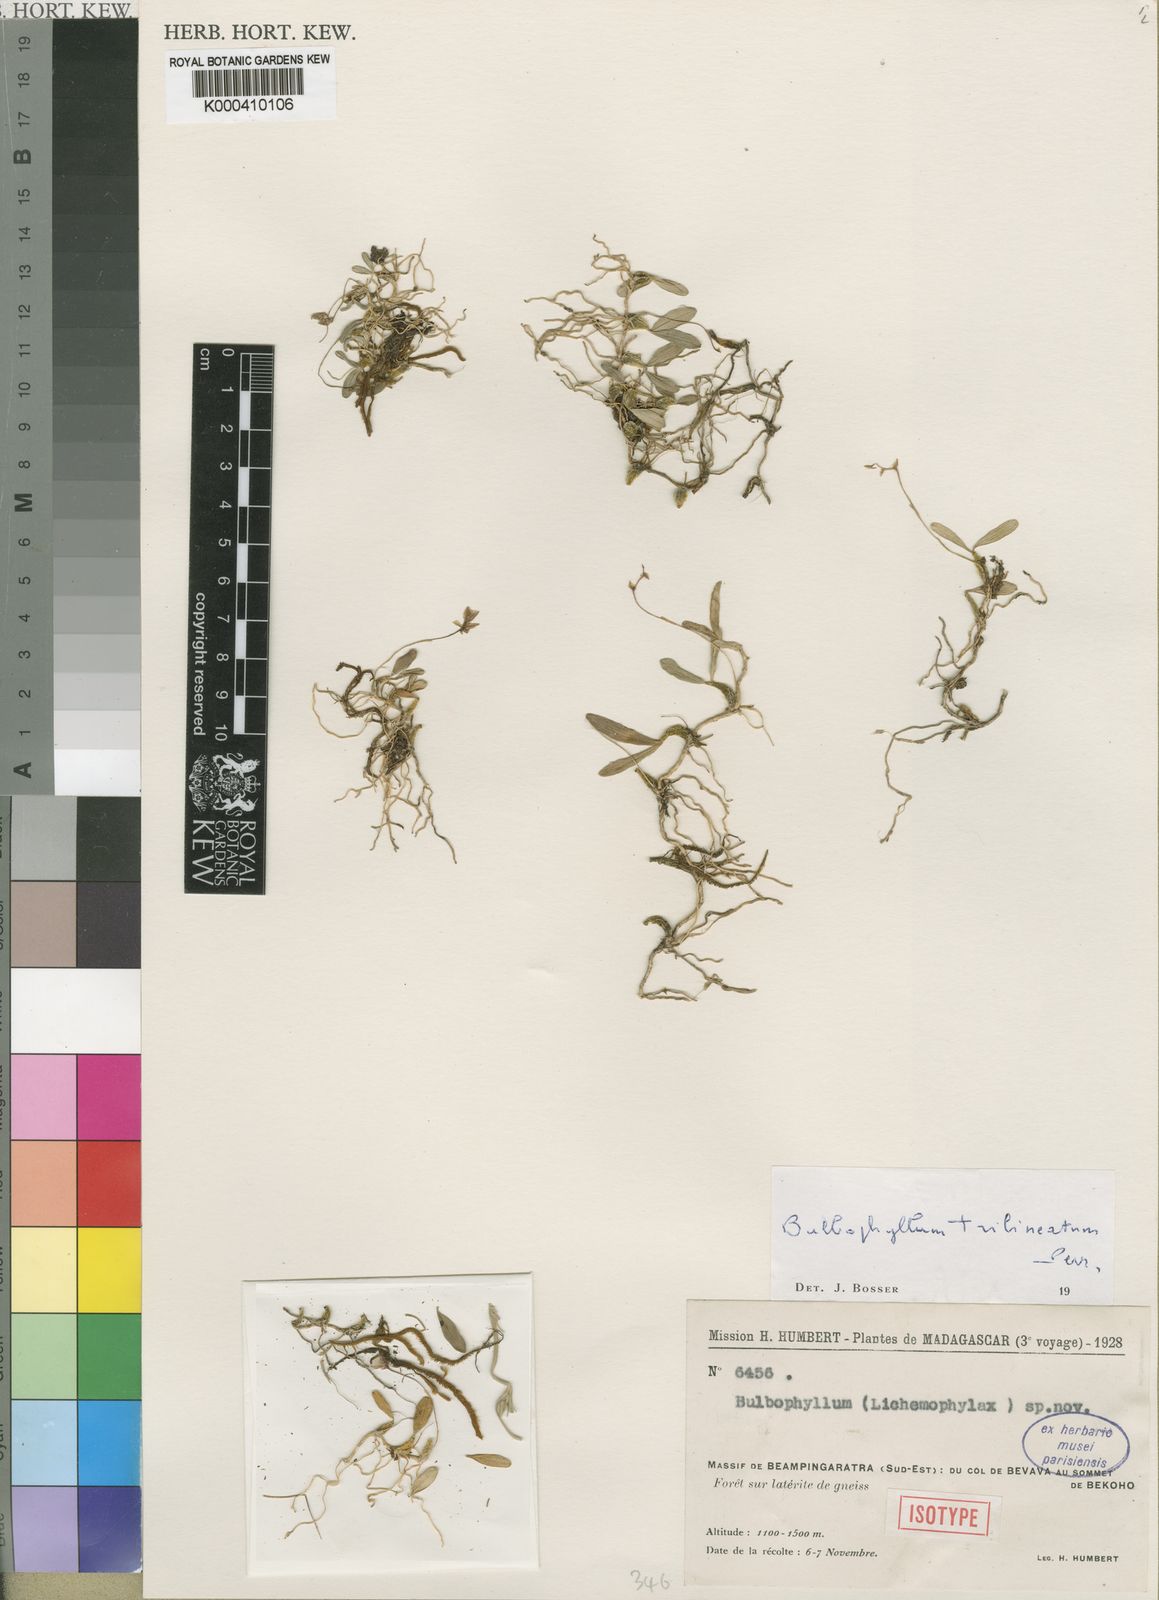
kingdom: Plantae
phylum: Tracheophyta
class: Liliopsida
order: Asparagales
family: Orchidaceae
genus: Bulbophyllum
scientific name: Bulbophyllum trilineatum
